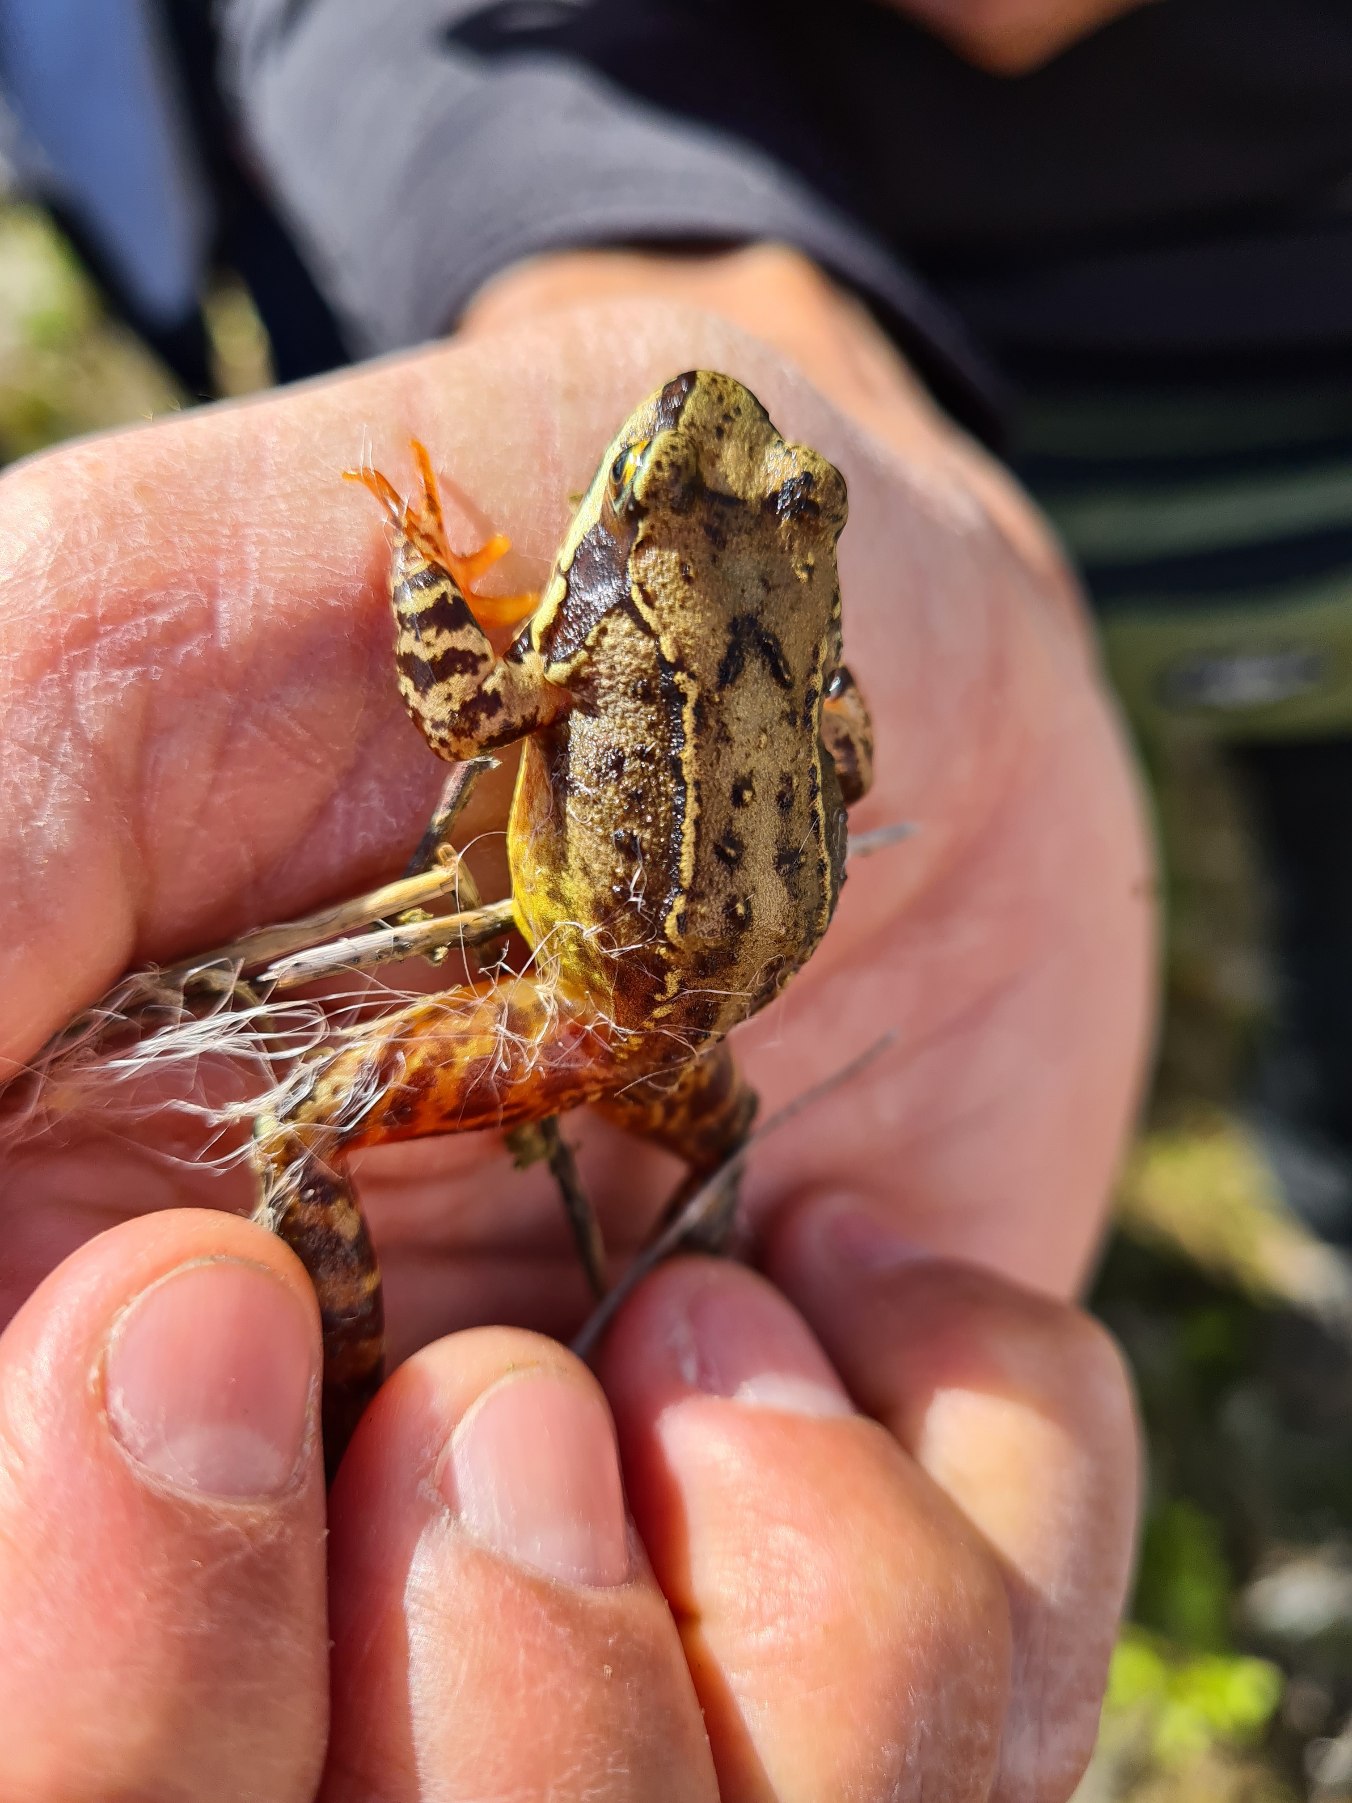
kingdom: Animalia
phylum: Chordata
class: Amphibia
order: Anura
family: Ranidae
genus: Rana
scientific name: Rana temporaria
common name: Butsnudet frø
